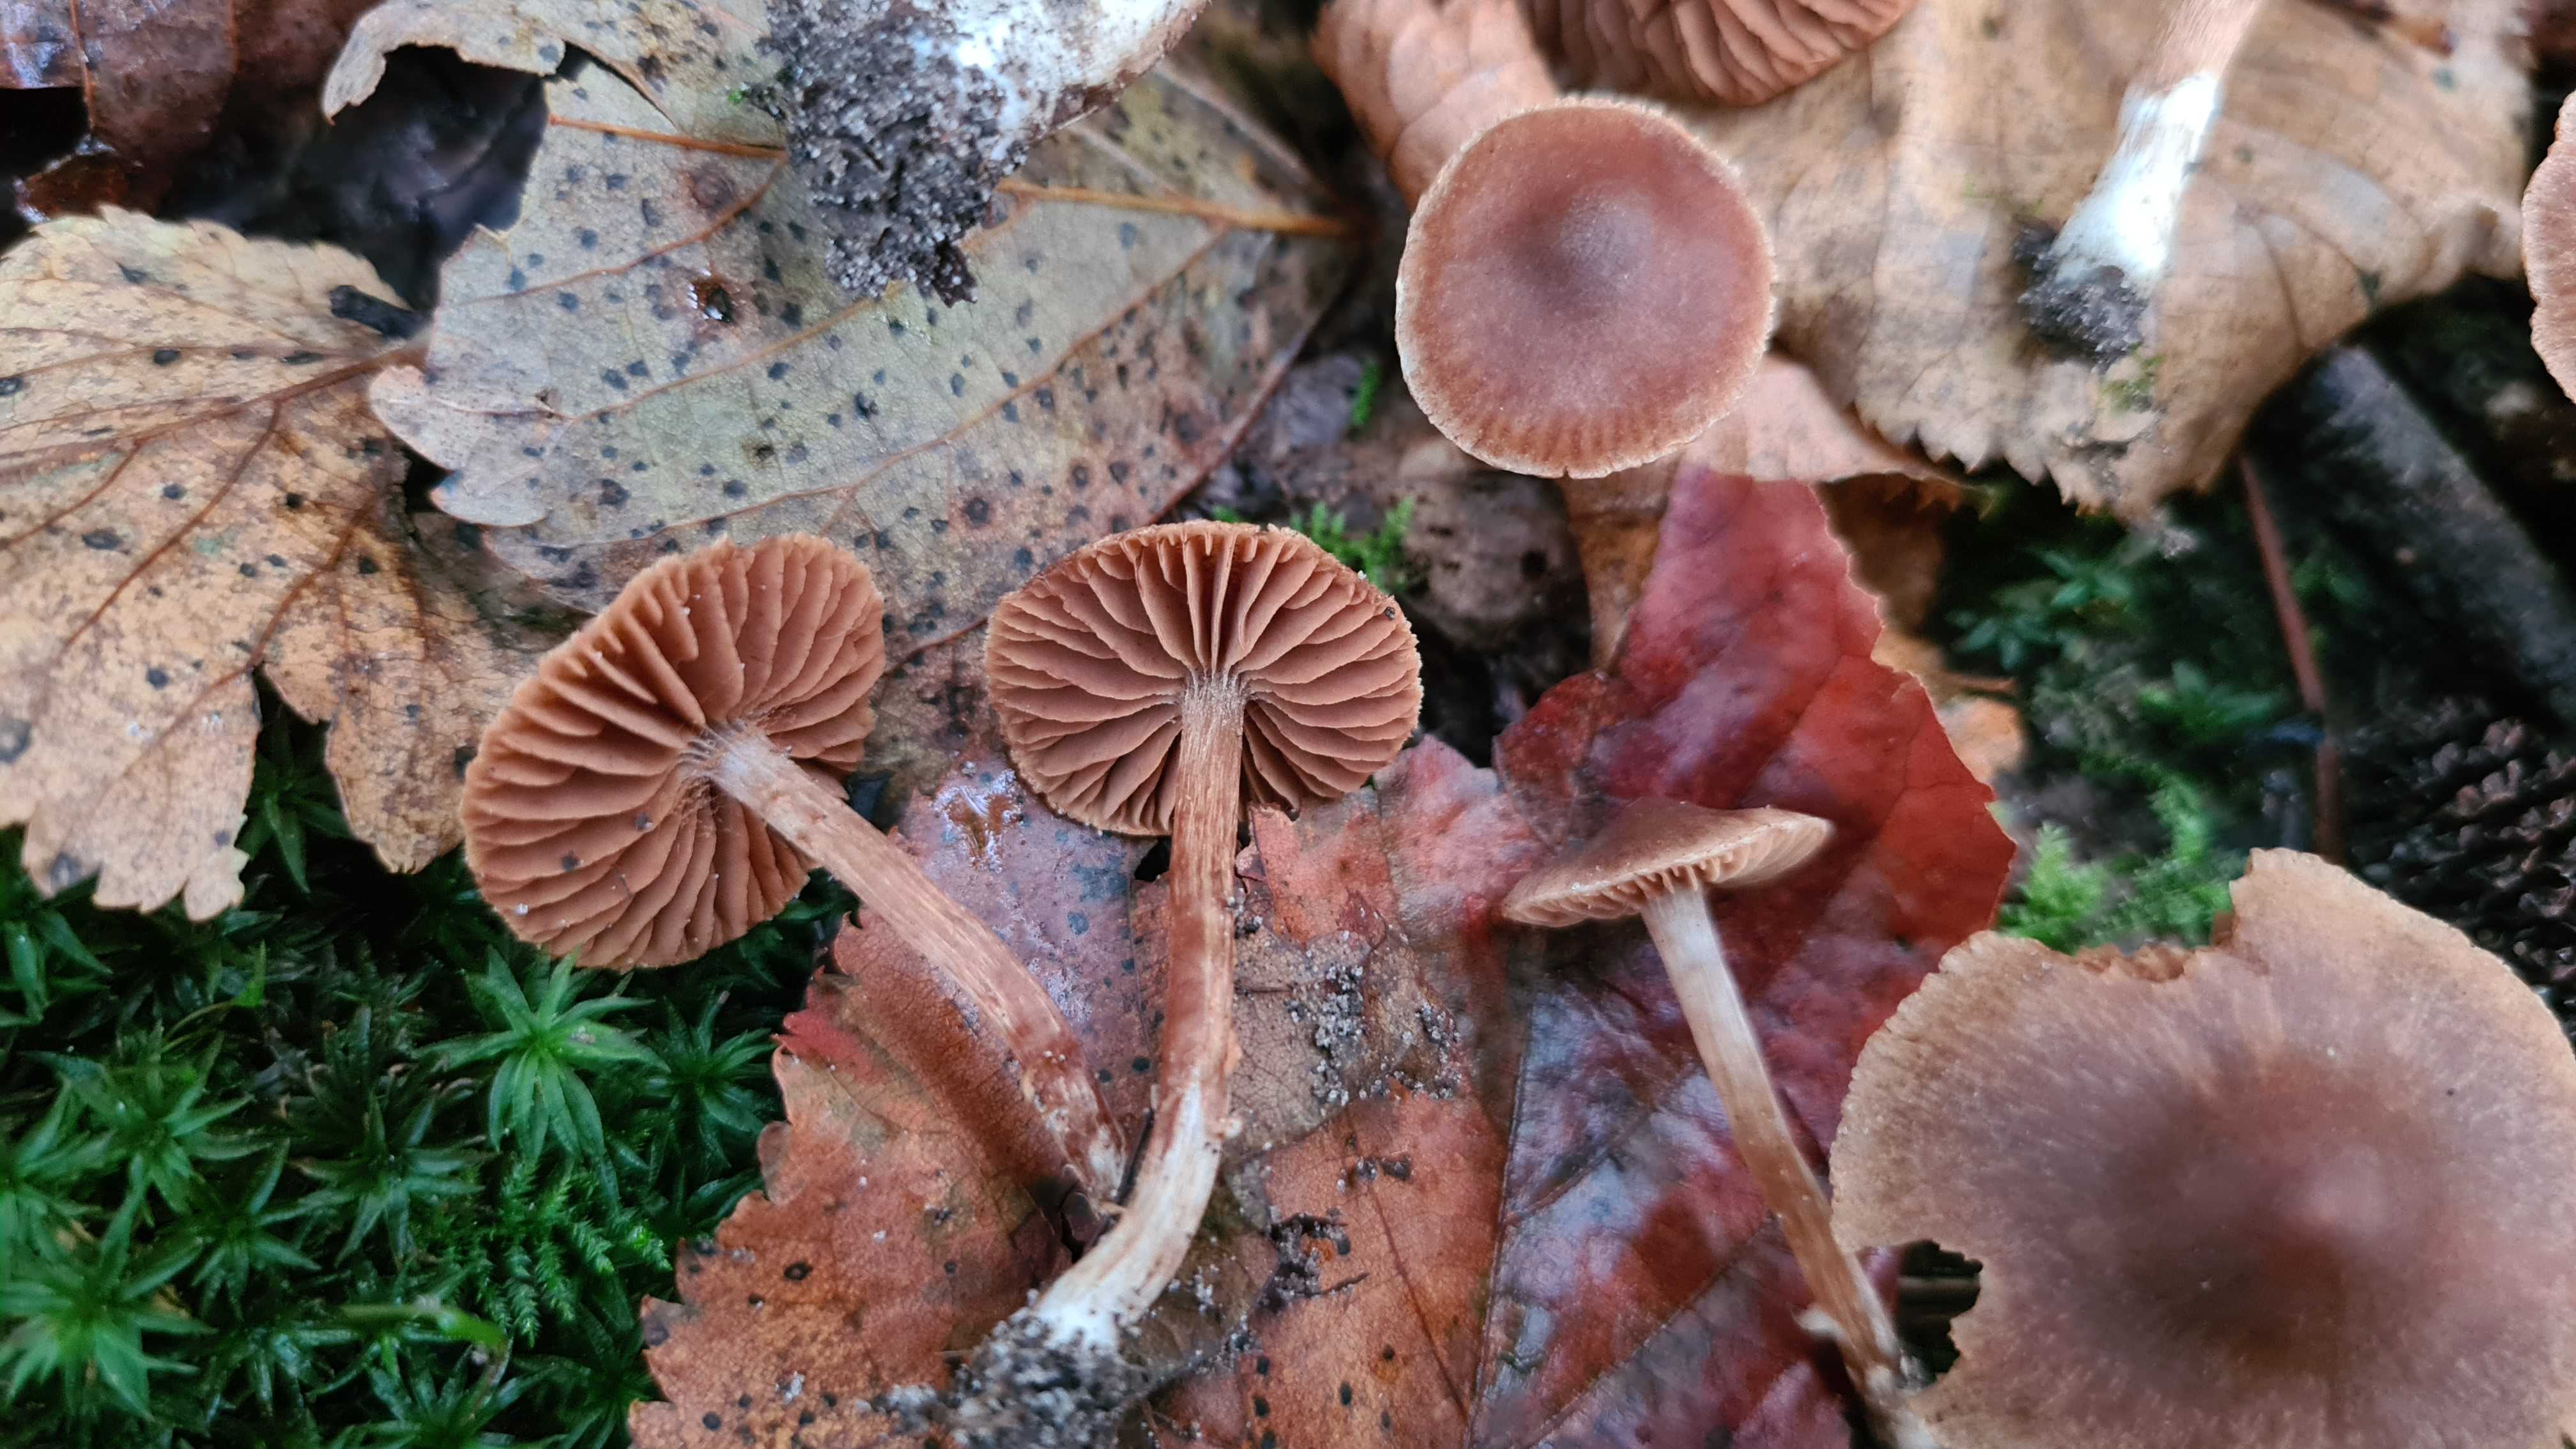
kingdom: Fungi
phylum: Basidiomycota
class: Agaricomycetes
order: Agaricales
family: Cortinariaceae
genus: Cortinarius
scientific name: Cortinarius flexibilifolius
